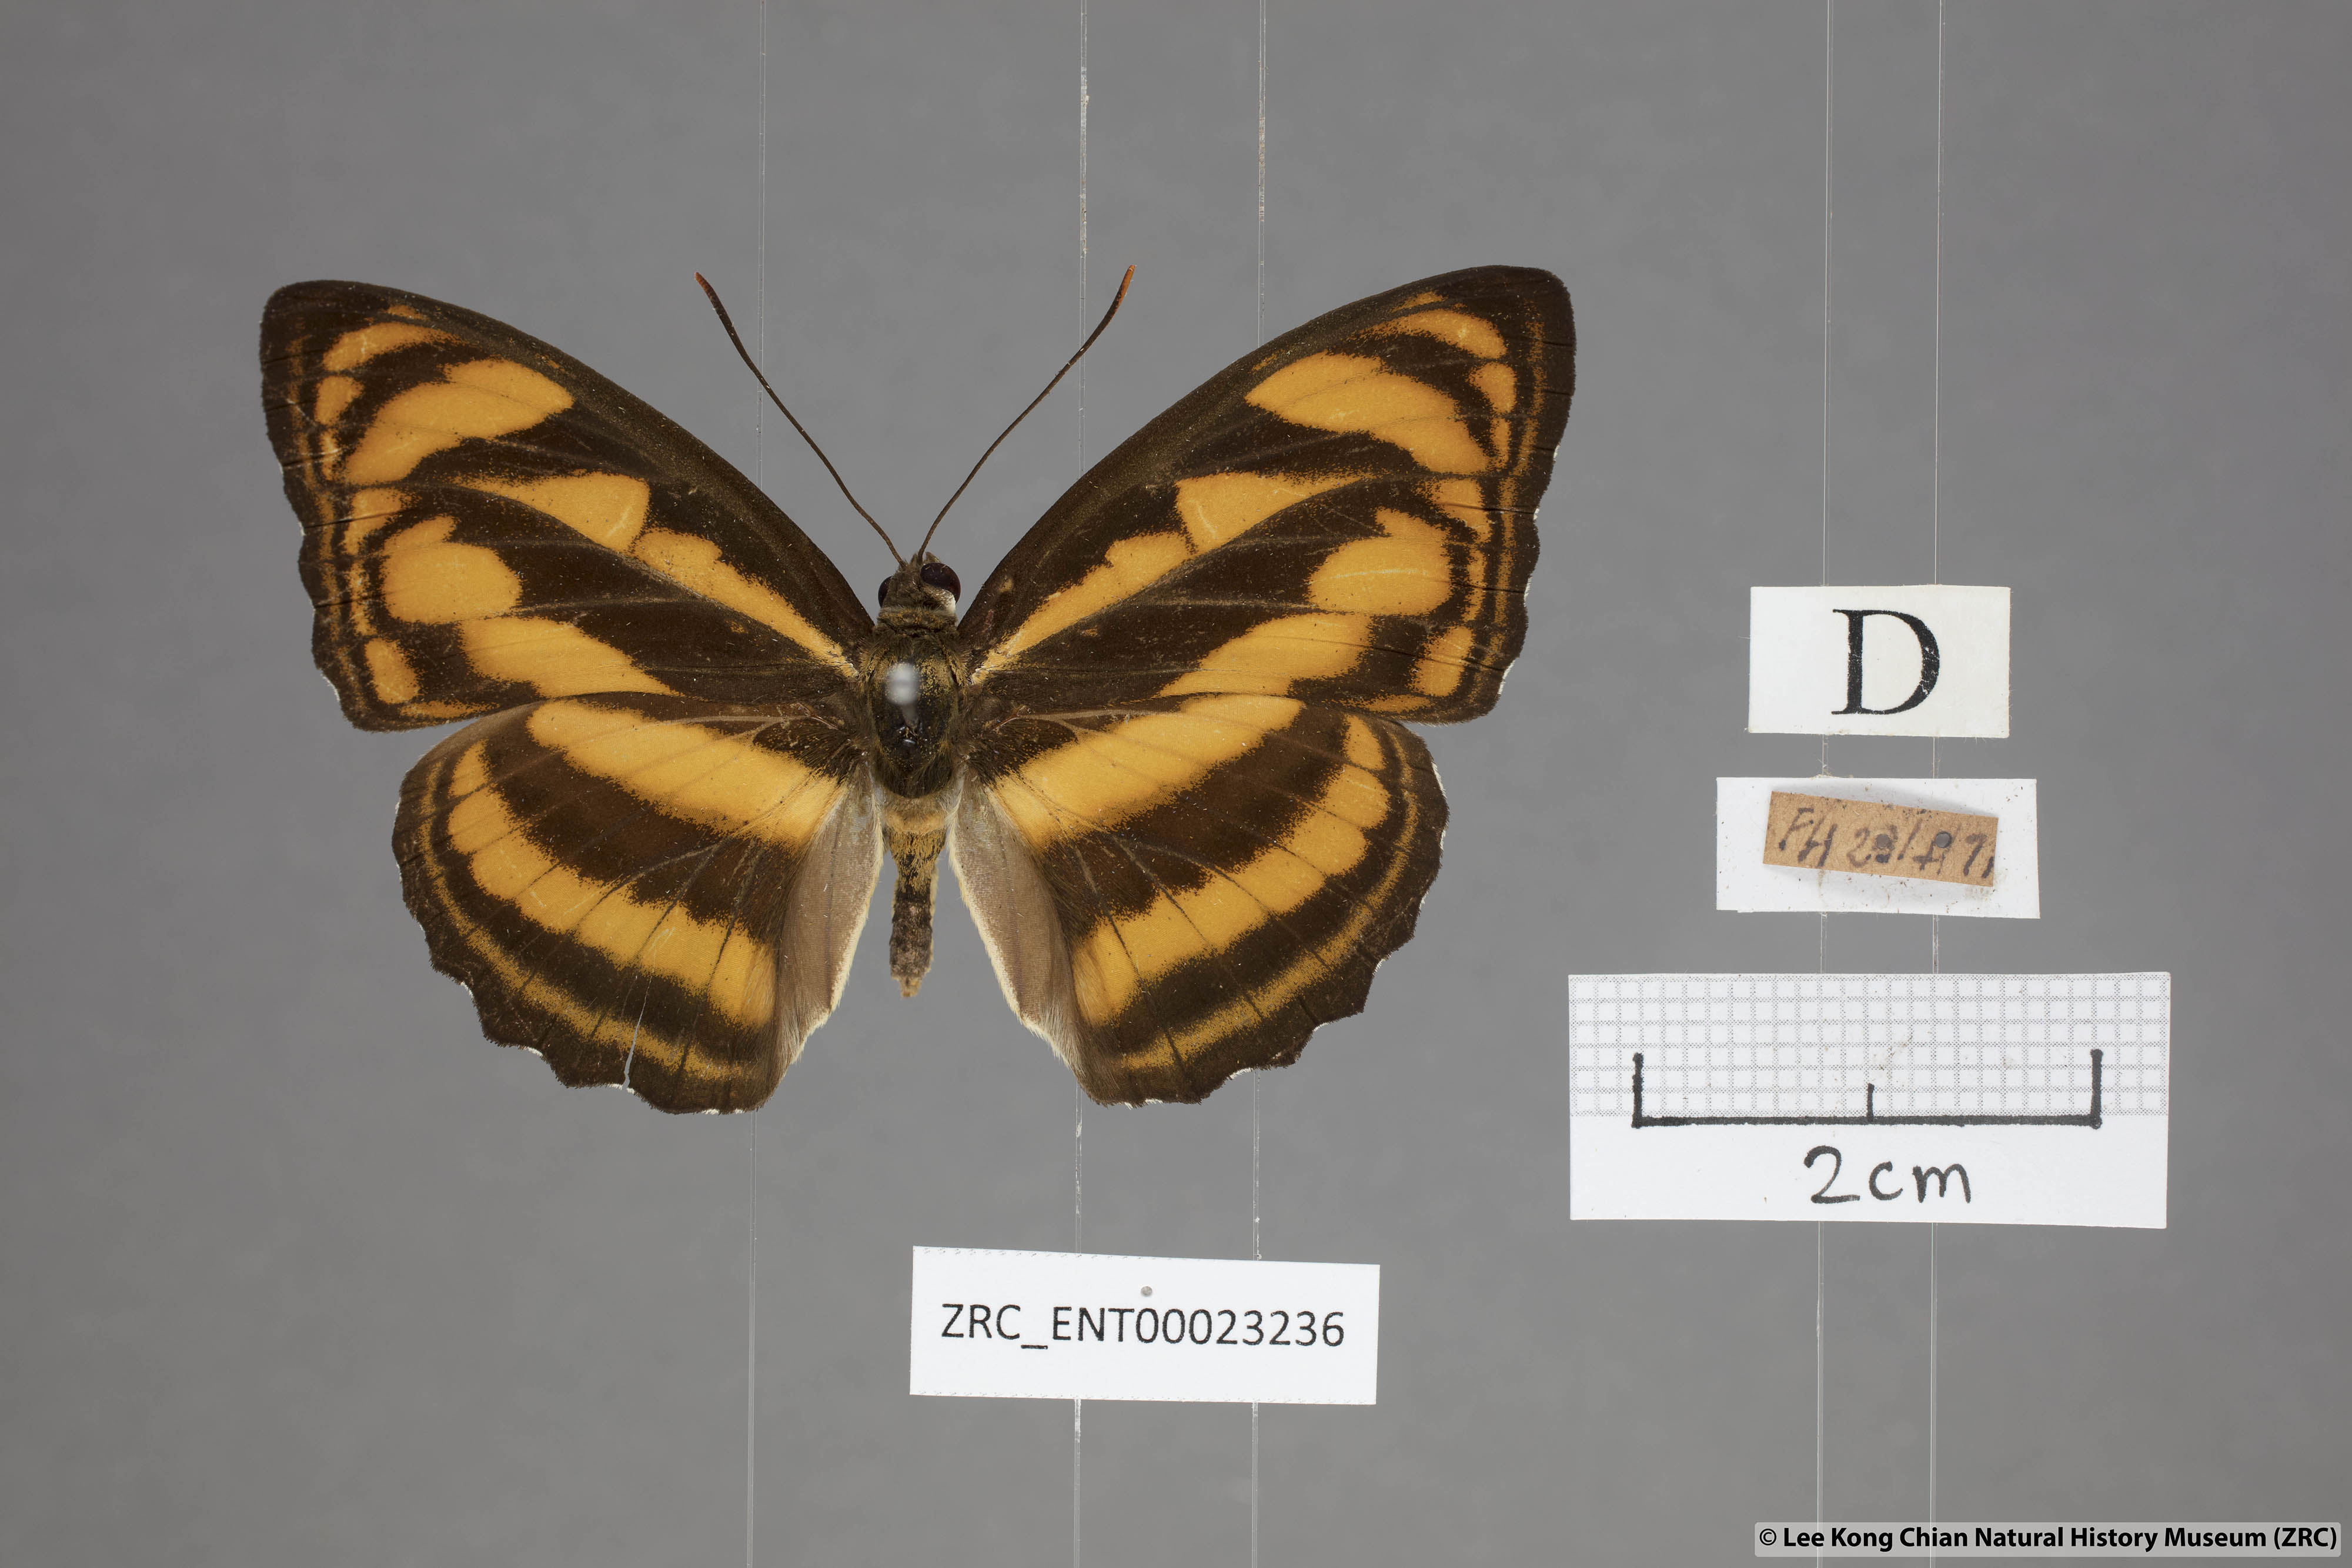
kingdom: Animalia
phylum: Arthropoda
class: Insecta
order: Lepidoptera
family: Nymphalidae
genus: Parathyma
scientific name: Parathyma nefte
